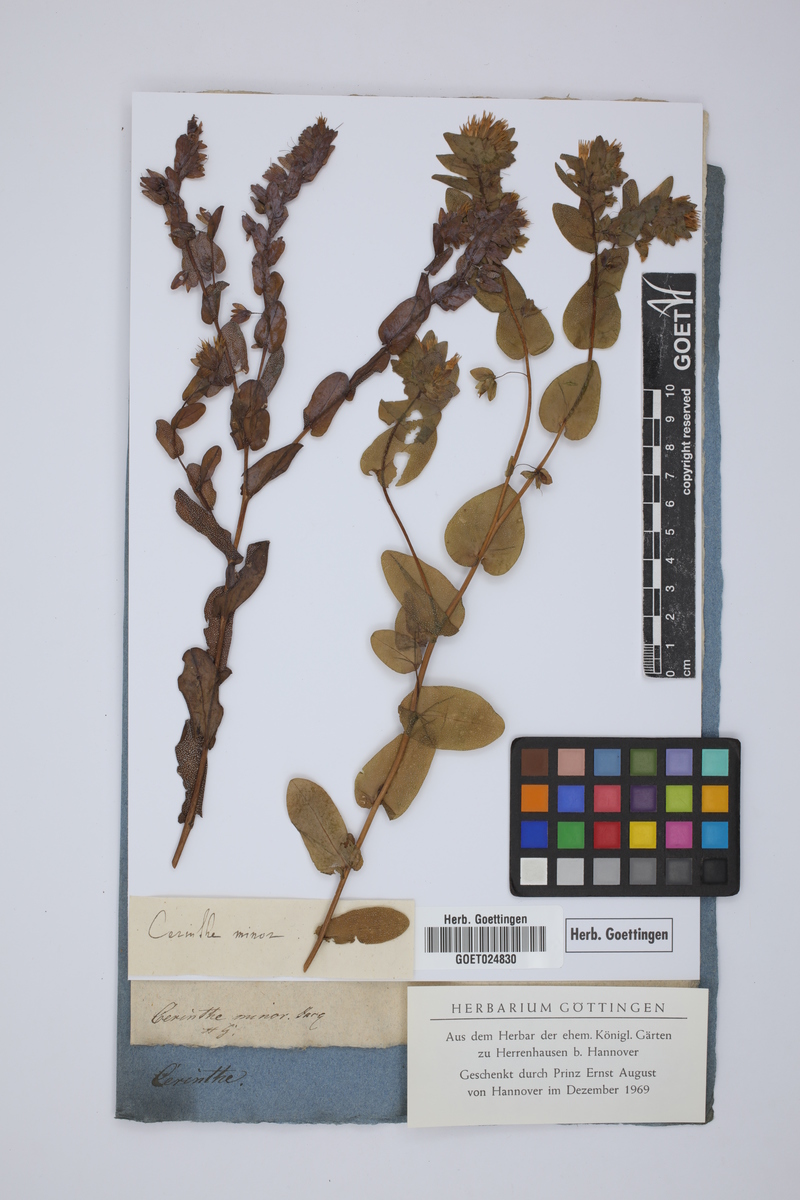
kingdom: Plantae
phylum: Tracheophyta
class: Magnoliopsida
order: Boraginales
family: Boraginaceae
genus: Cerinthe
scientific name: Cerinthe minor
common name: Lesser honeywort
